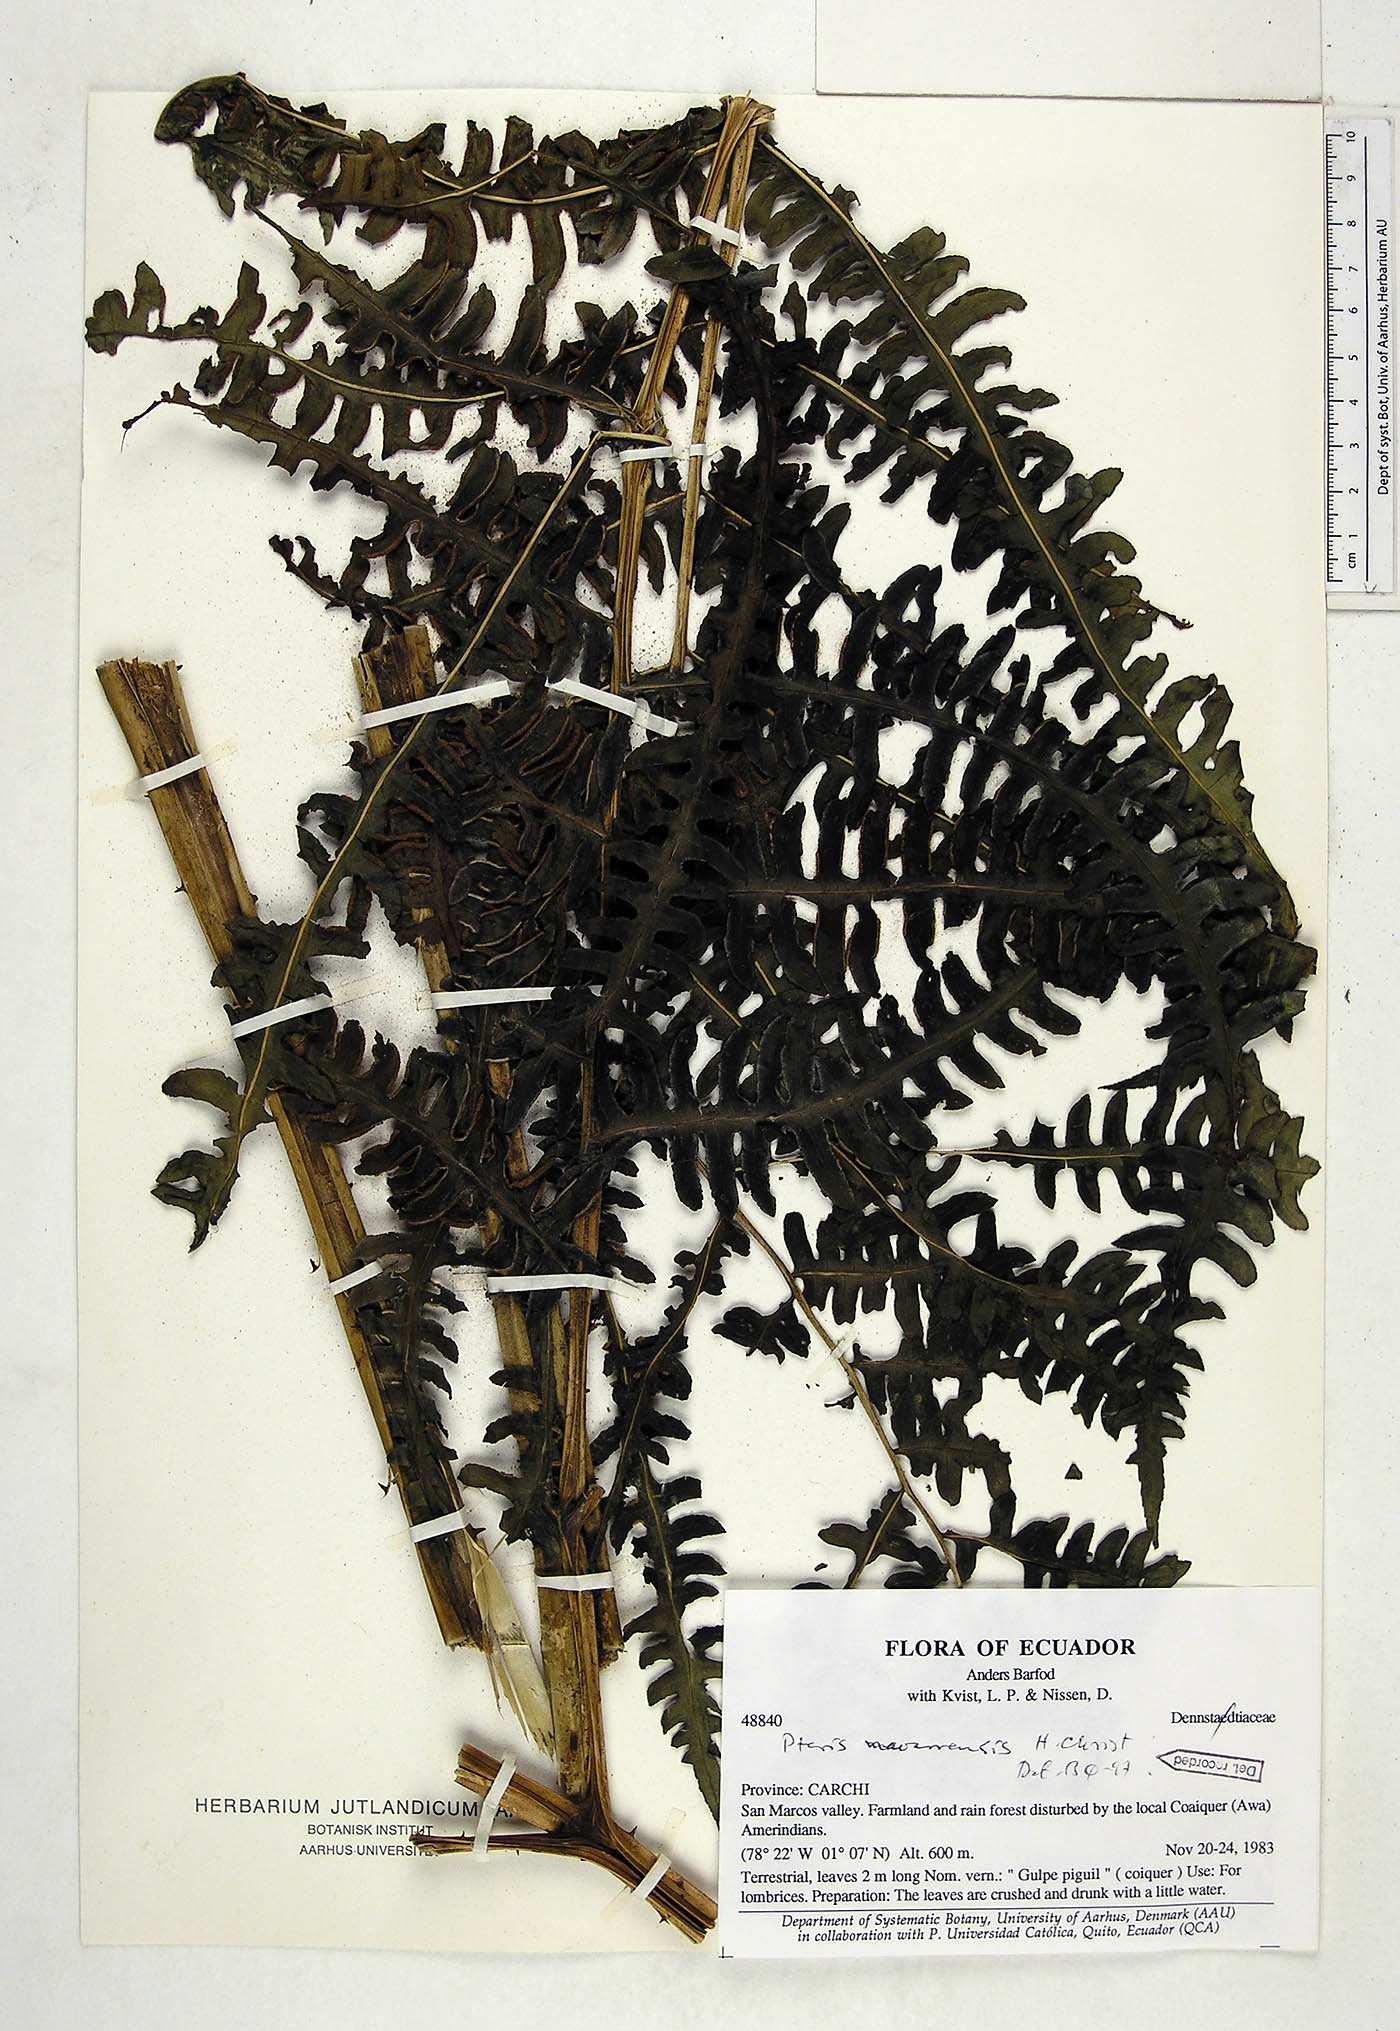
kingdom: Plantae
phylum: Tracheophyta
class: Polypodiopsida
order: Polypodiales
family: Pteridaceae
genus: Pteris
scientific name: Pteris navarrensis
